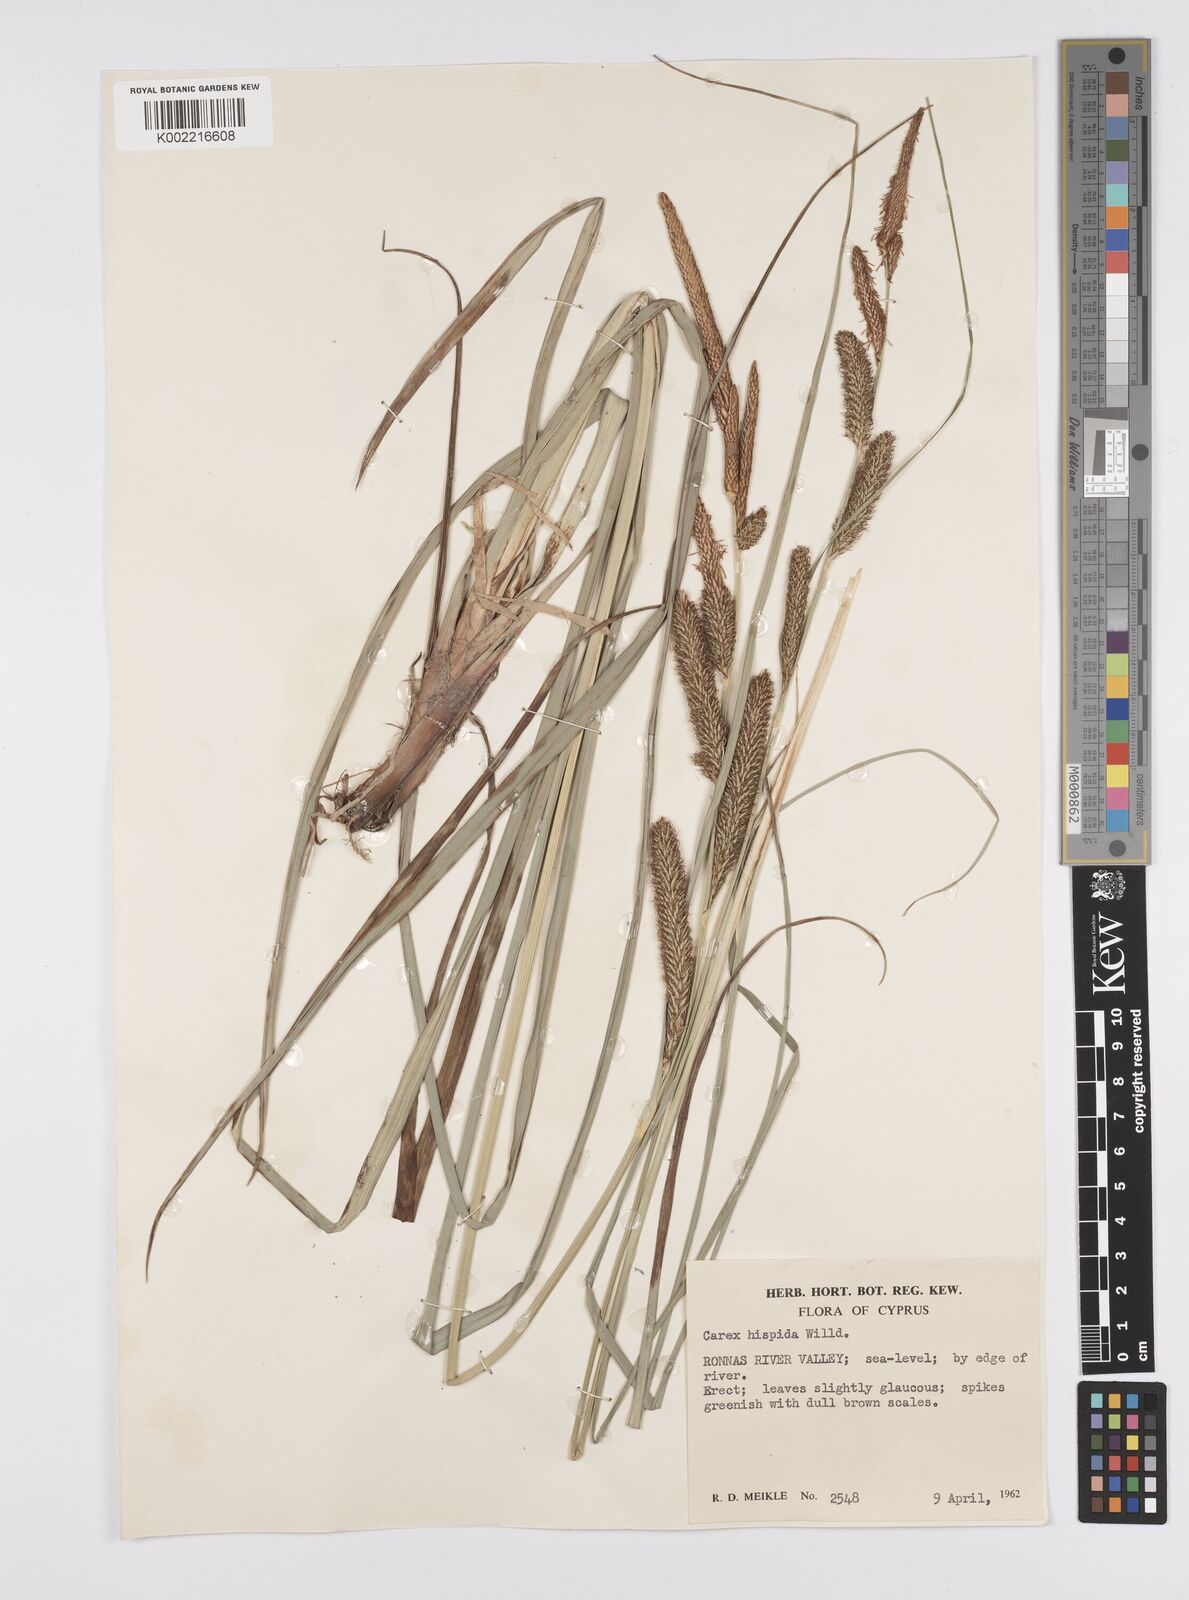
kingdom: Plantae
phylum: Tracheophyta
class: Liliopsida
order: Poales
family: Cyperaceae
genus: Carex
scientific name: Carex hispida
